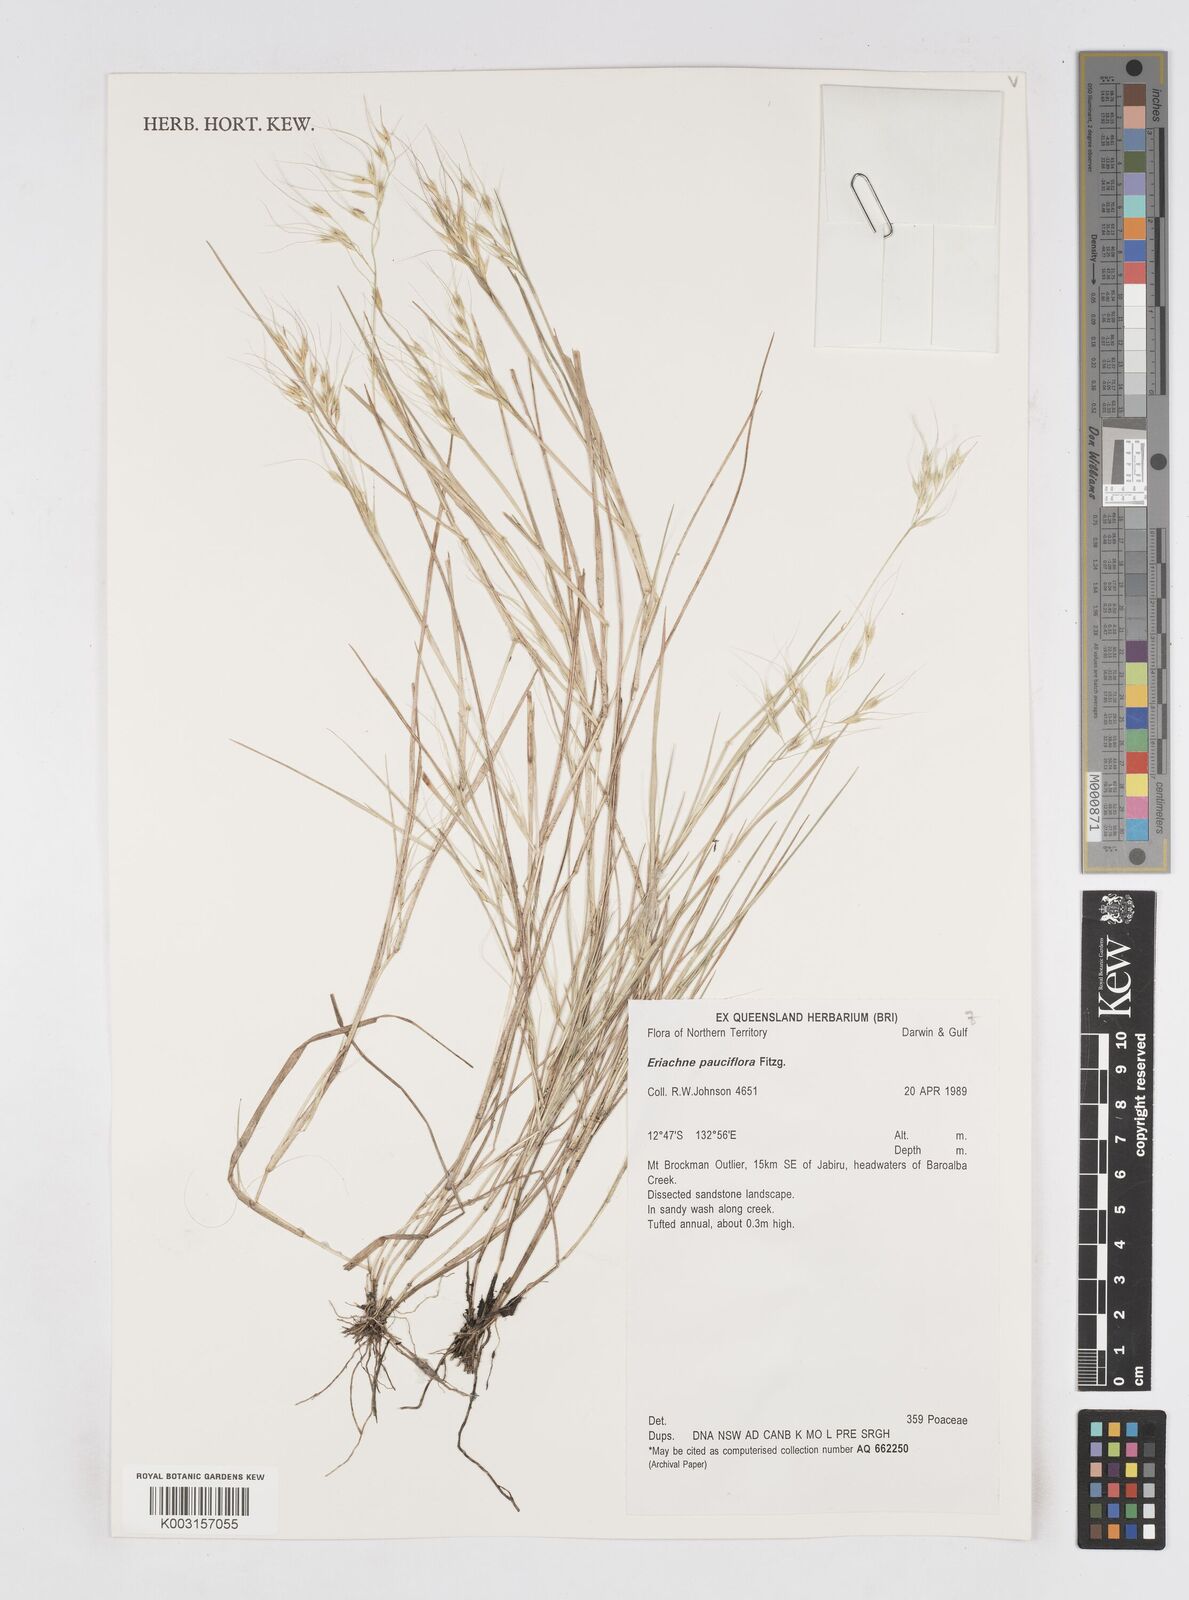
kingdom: Plantae
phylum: Tracheophyta
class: Liliopsida
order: Poales
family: Poaceae
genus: Eriachne
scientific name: Eriachne pauciflora
